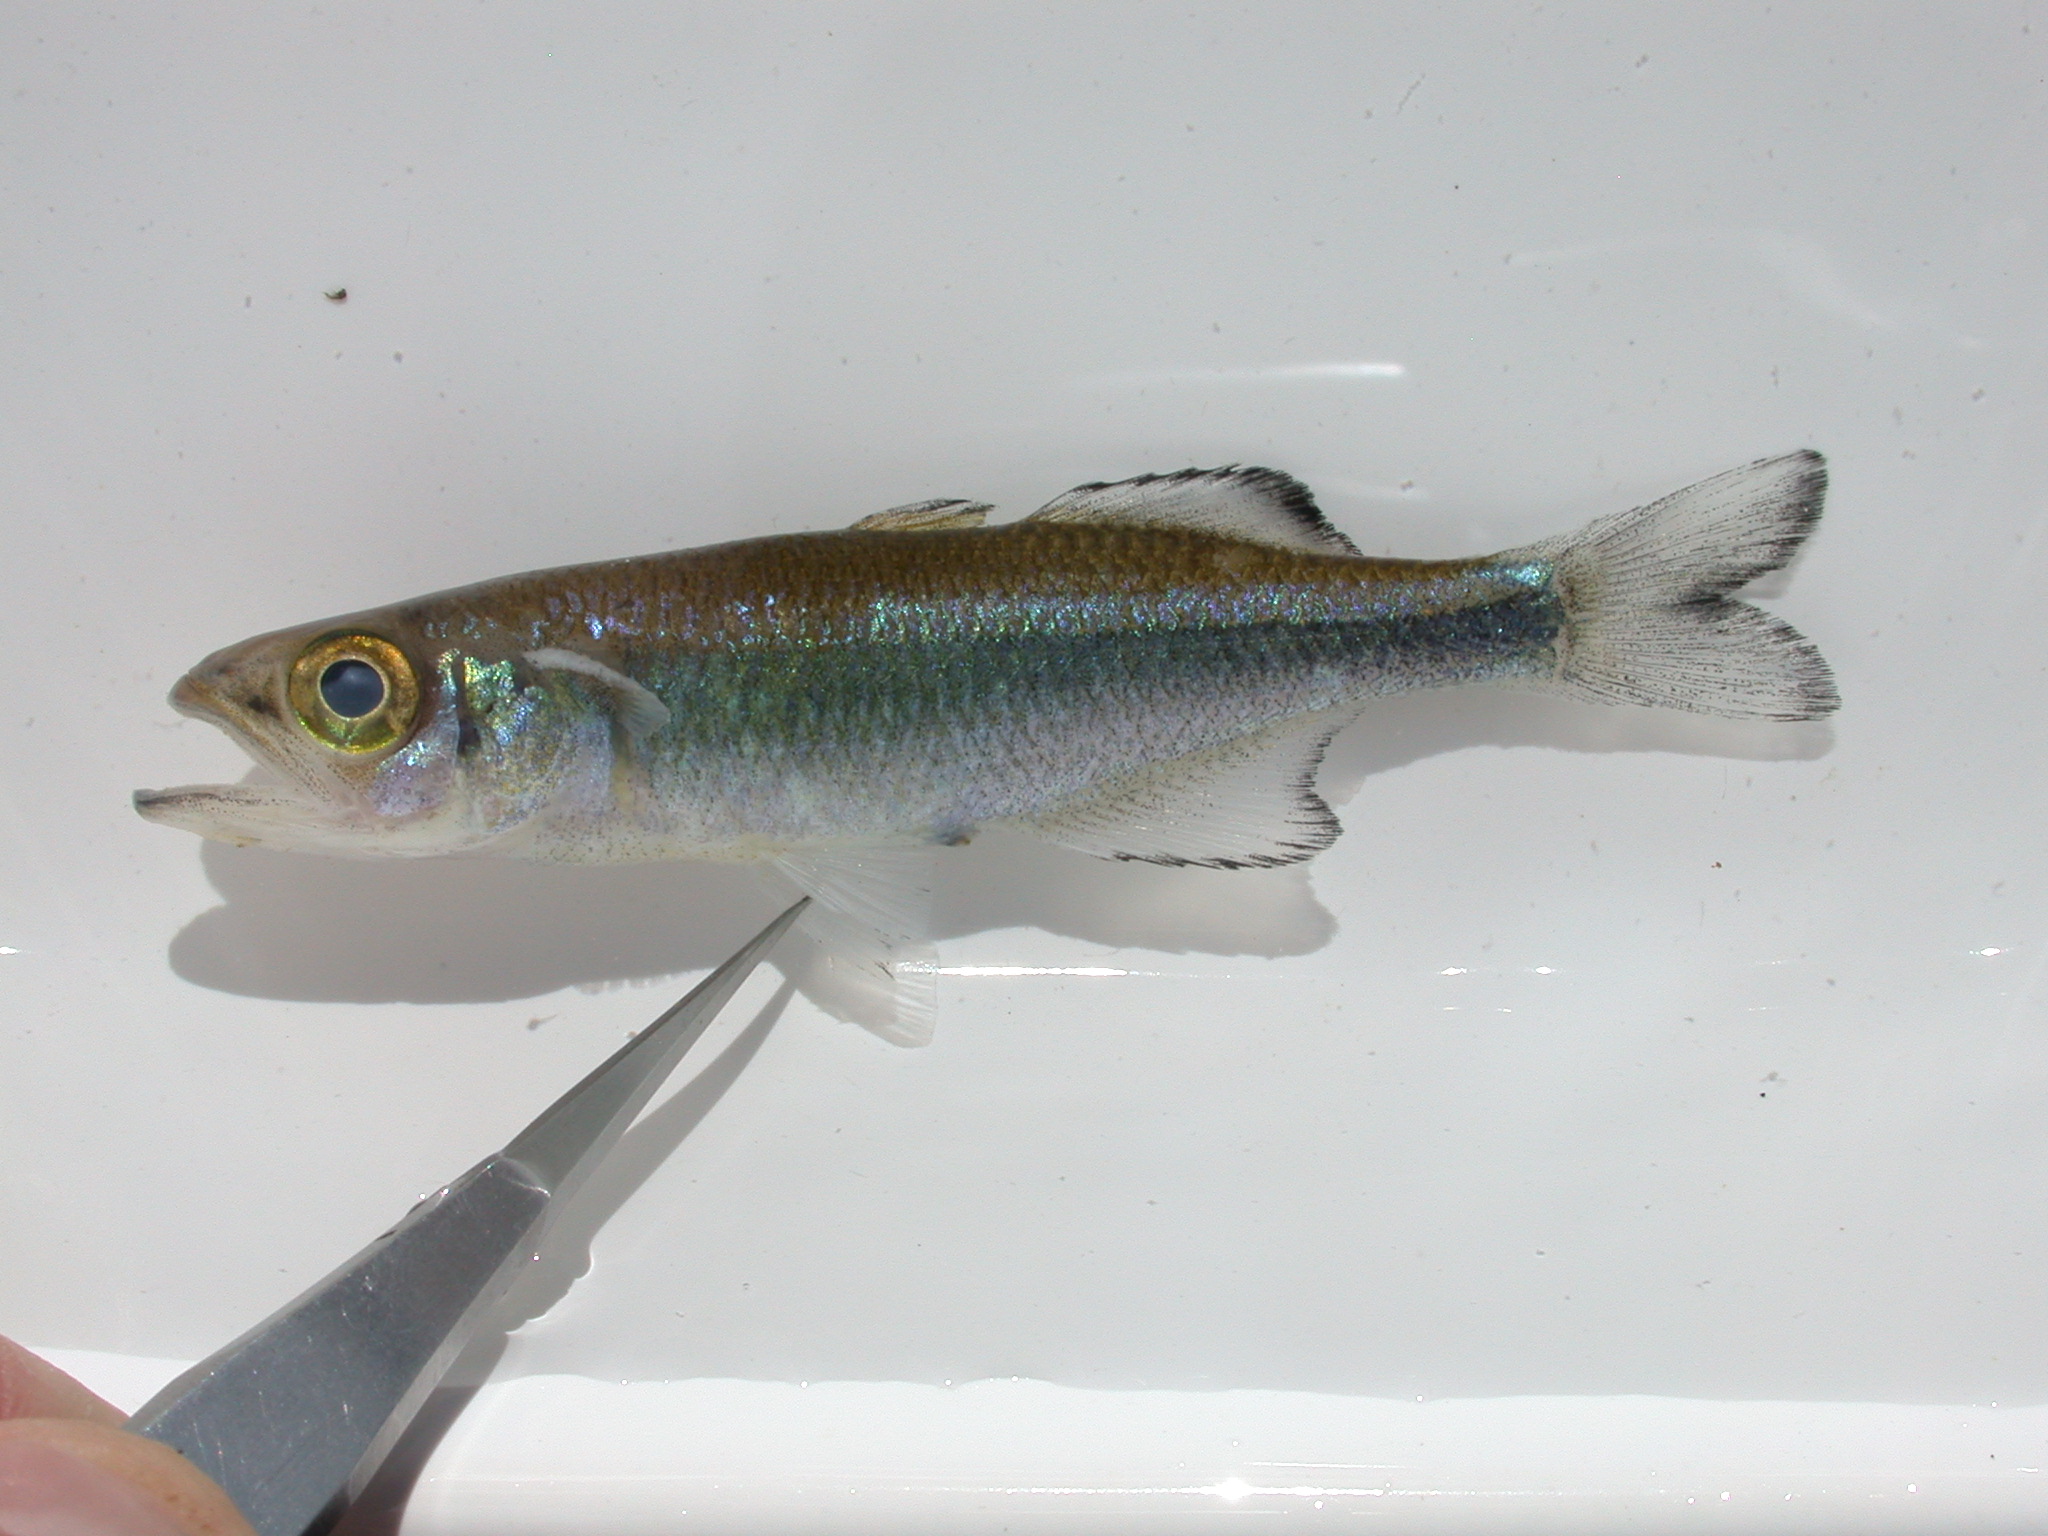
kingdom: Animalia
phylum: Chordata
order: Atheriniformes
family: Bedotiidae
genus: Rheocles
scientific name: Rheocles
